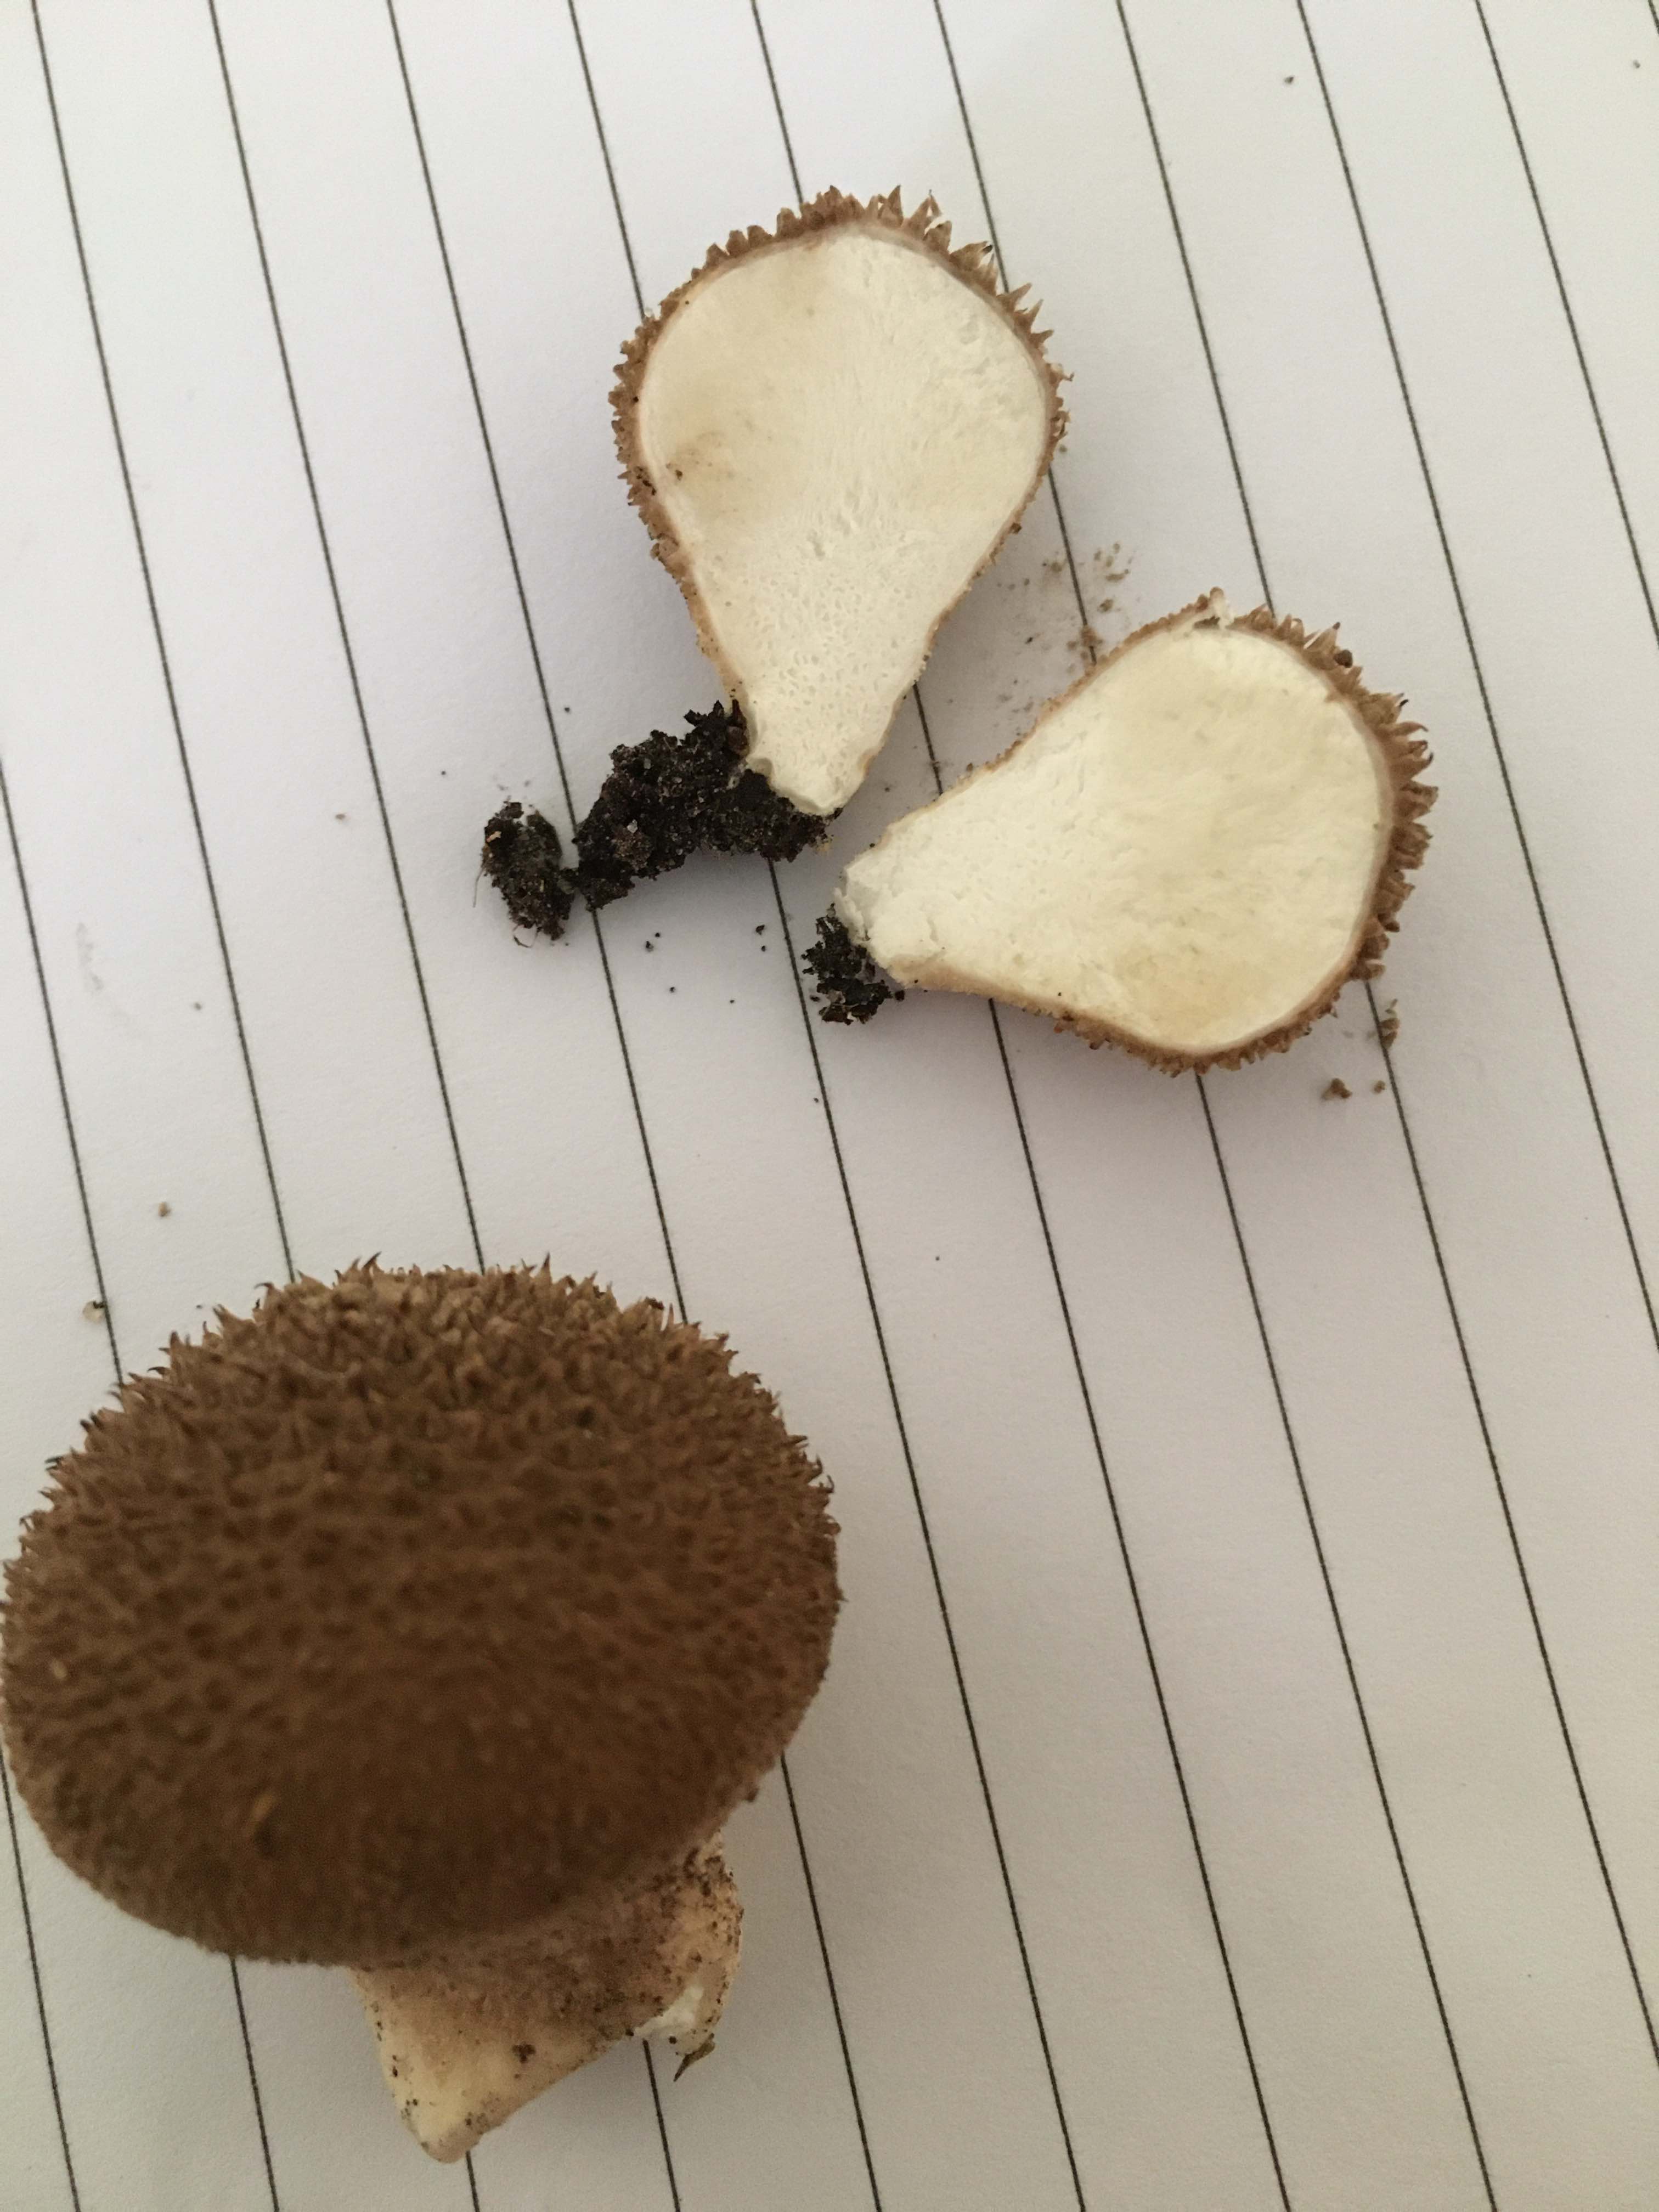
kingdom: Fungi
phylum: Basidiomycota
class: Agaricomycetes
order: Agaricales
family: Lycoperdaceae
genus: Lycoperdon
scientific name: Lycoperdon nigrescens
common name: sortagtig støvbold
